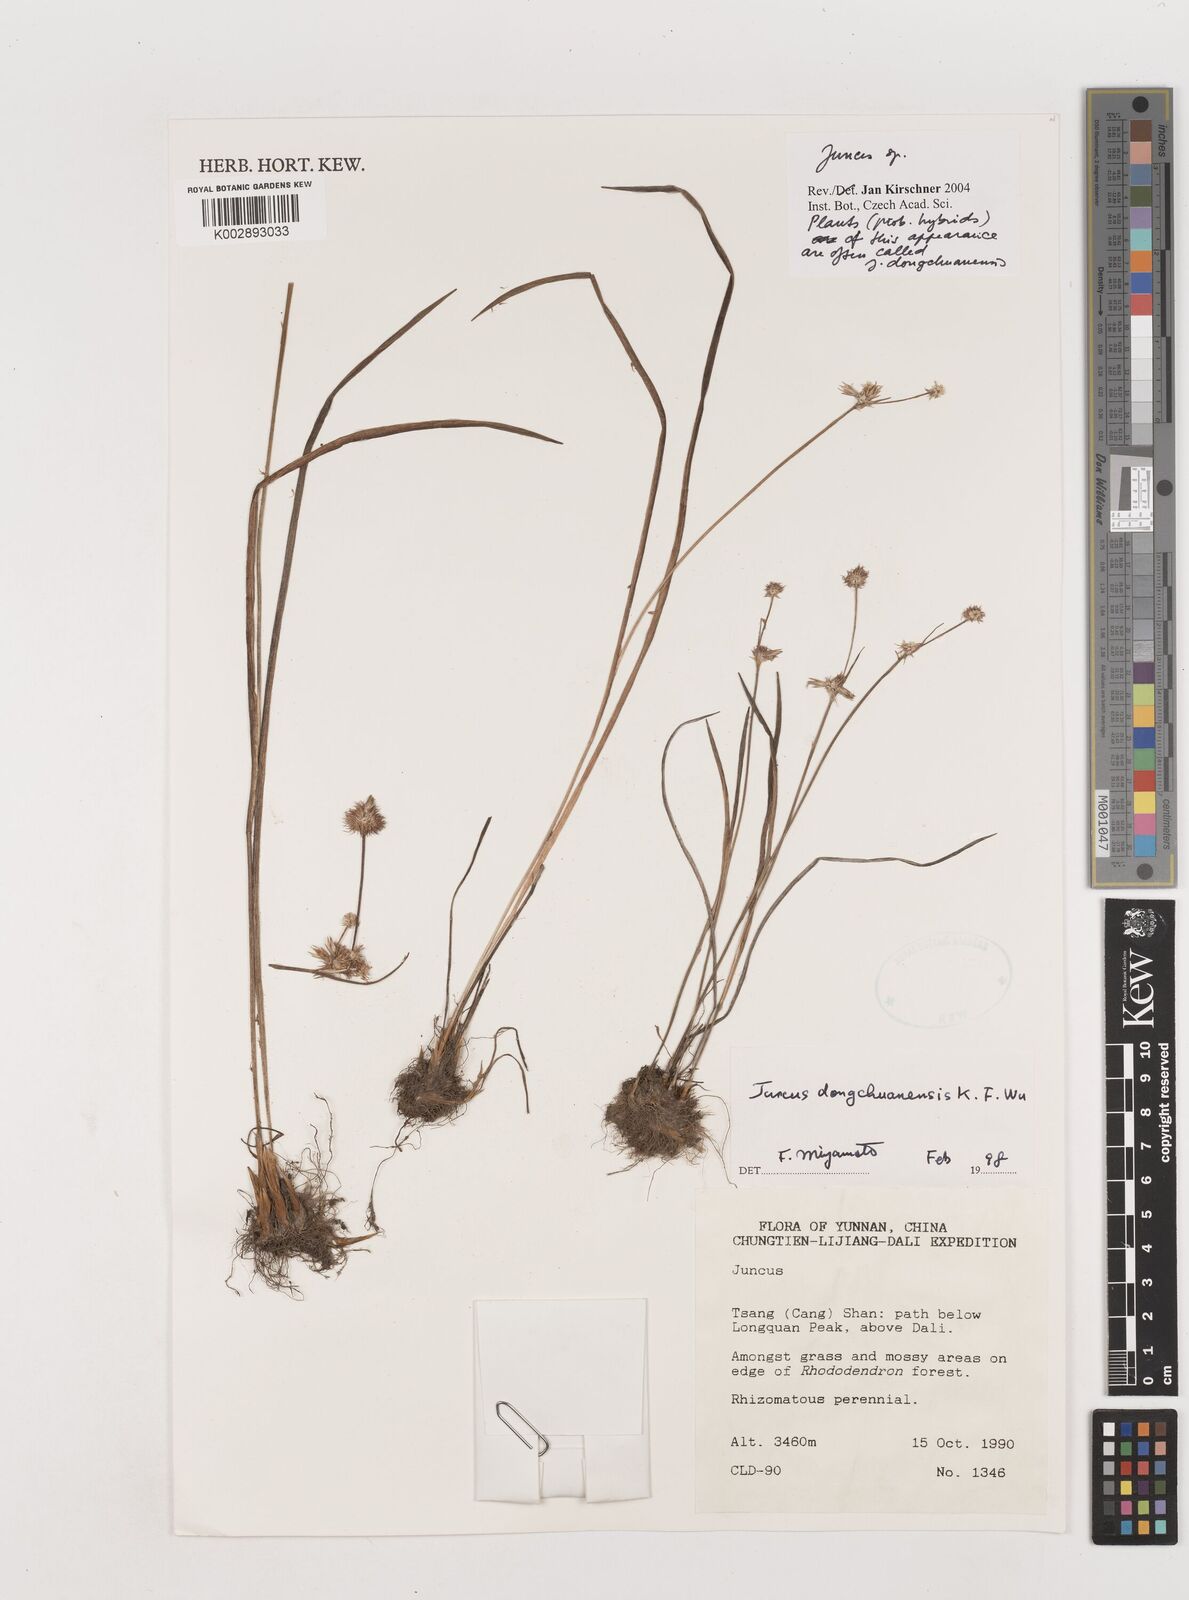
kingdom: Plantae
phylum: Tracheophyta
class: Liliopsida
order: Poales
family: Juncaceae
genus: Juncus
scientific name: Juncus dongchuanensis
